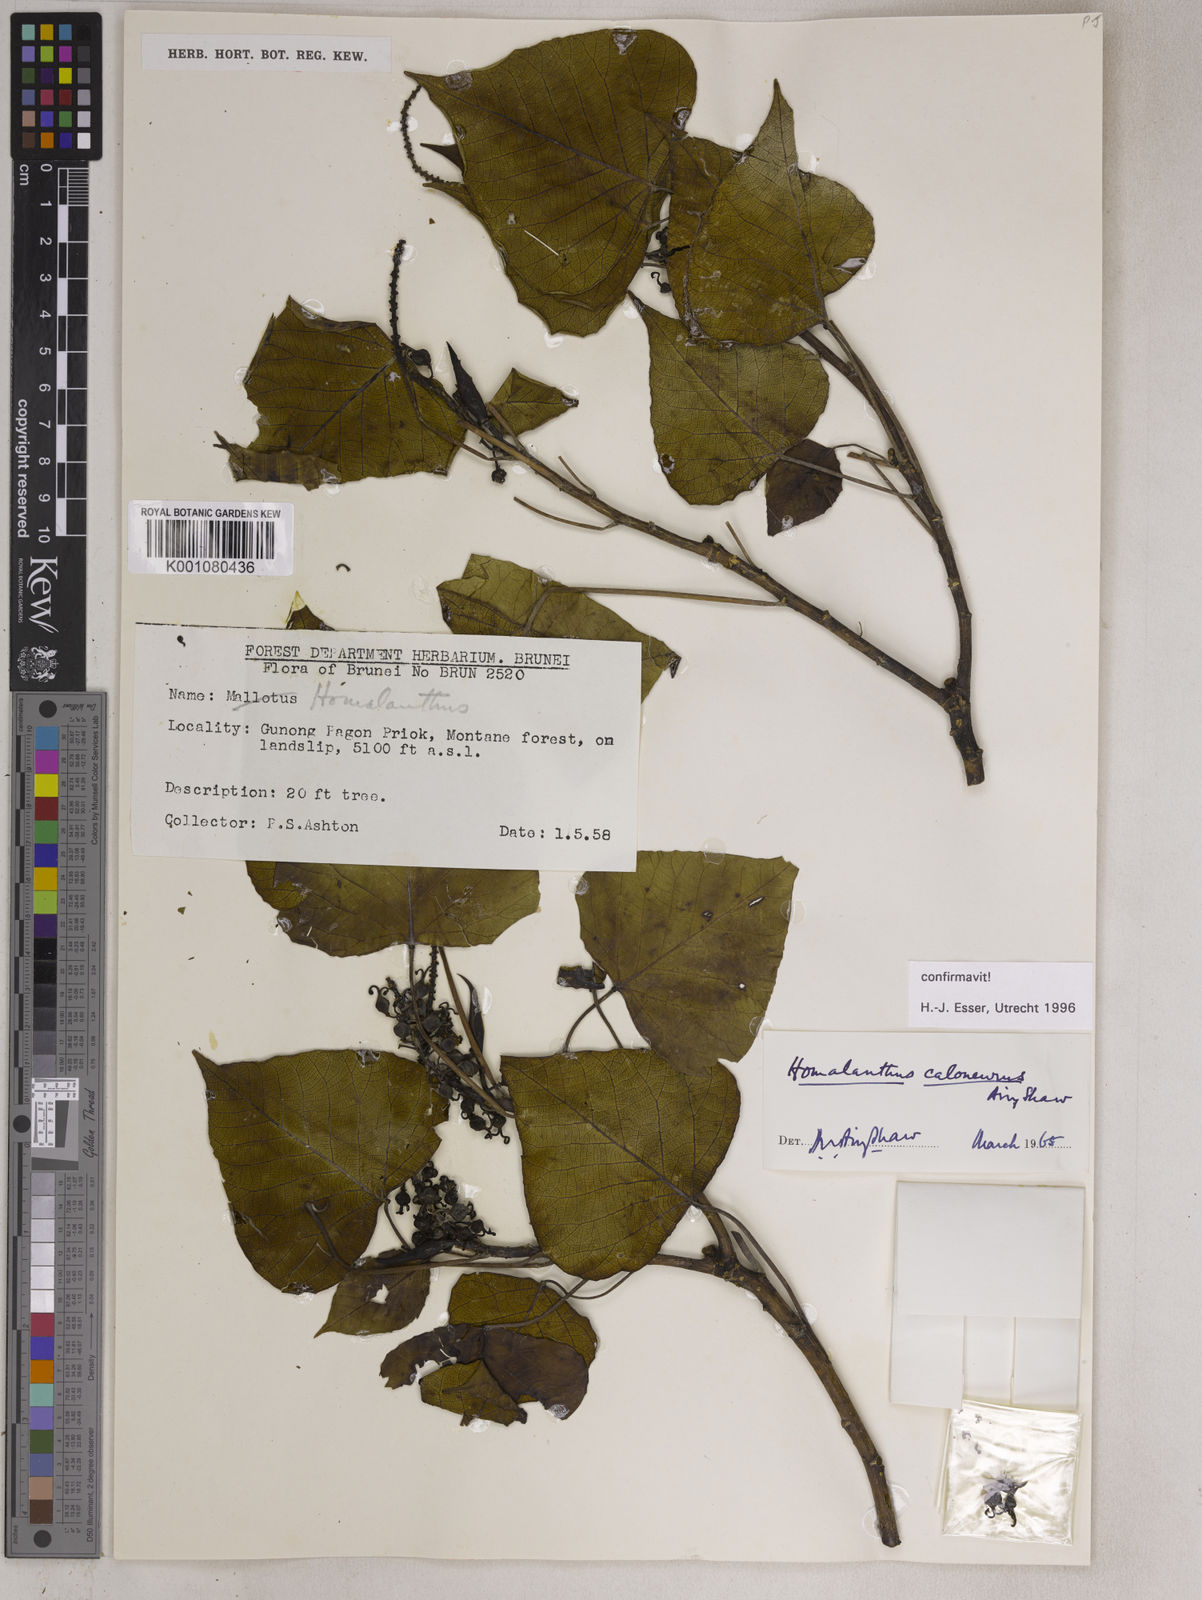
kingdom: Plantae
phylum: Tracheophyta
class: Magnoliopsida
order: Malpighiales
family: Euphorbiaceae
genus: Homalanthus
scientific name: Homalanthus caloneurus
